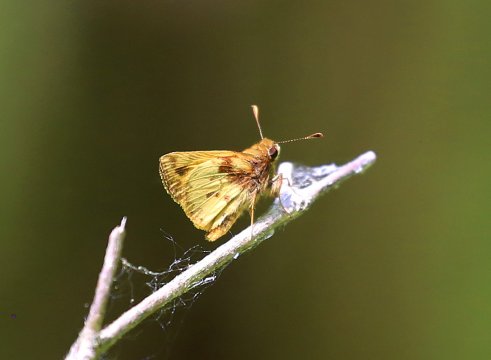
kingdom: Animalia
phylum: Arthropoda
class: Insecta
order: Lepidoptera
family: Hesperiidae
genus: Lon
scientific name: Lon zabulon
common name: Zabulon Skipper
